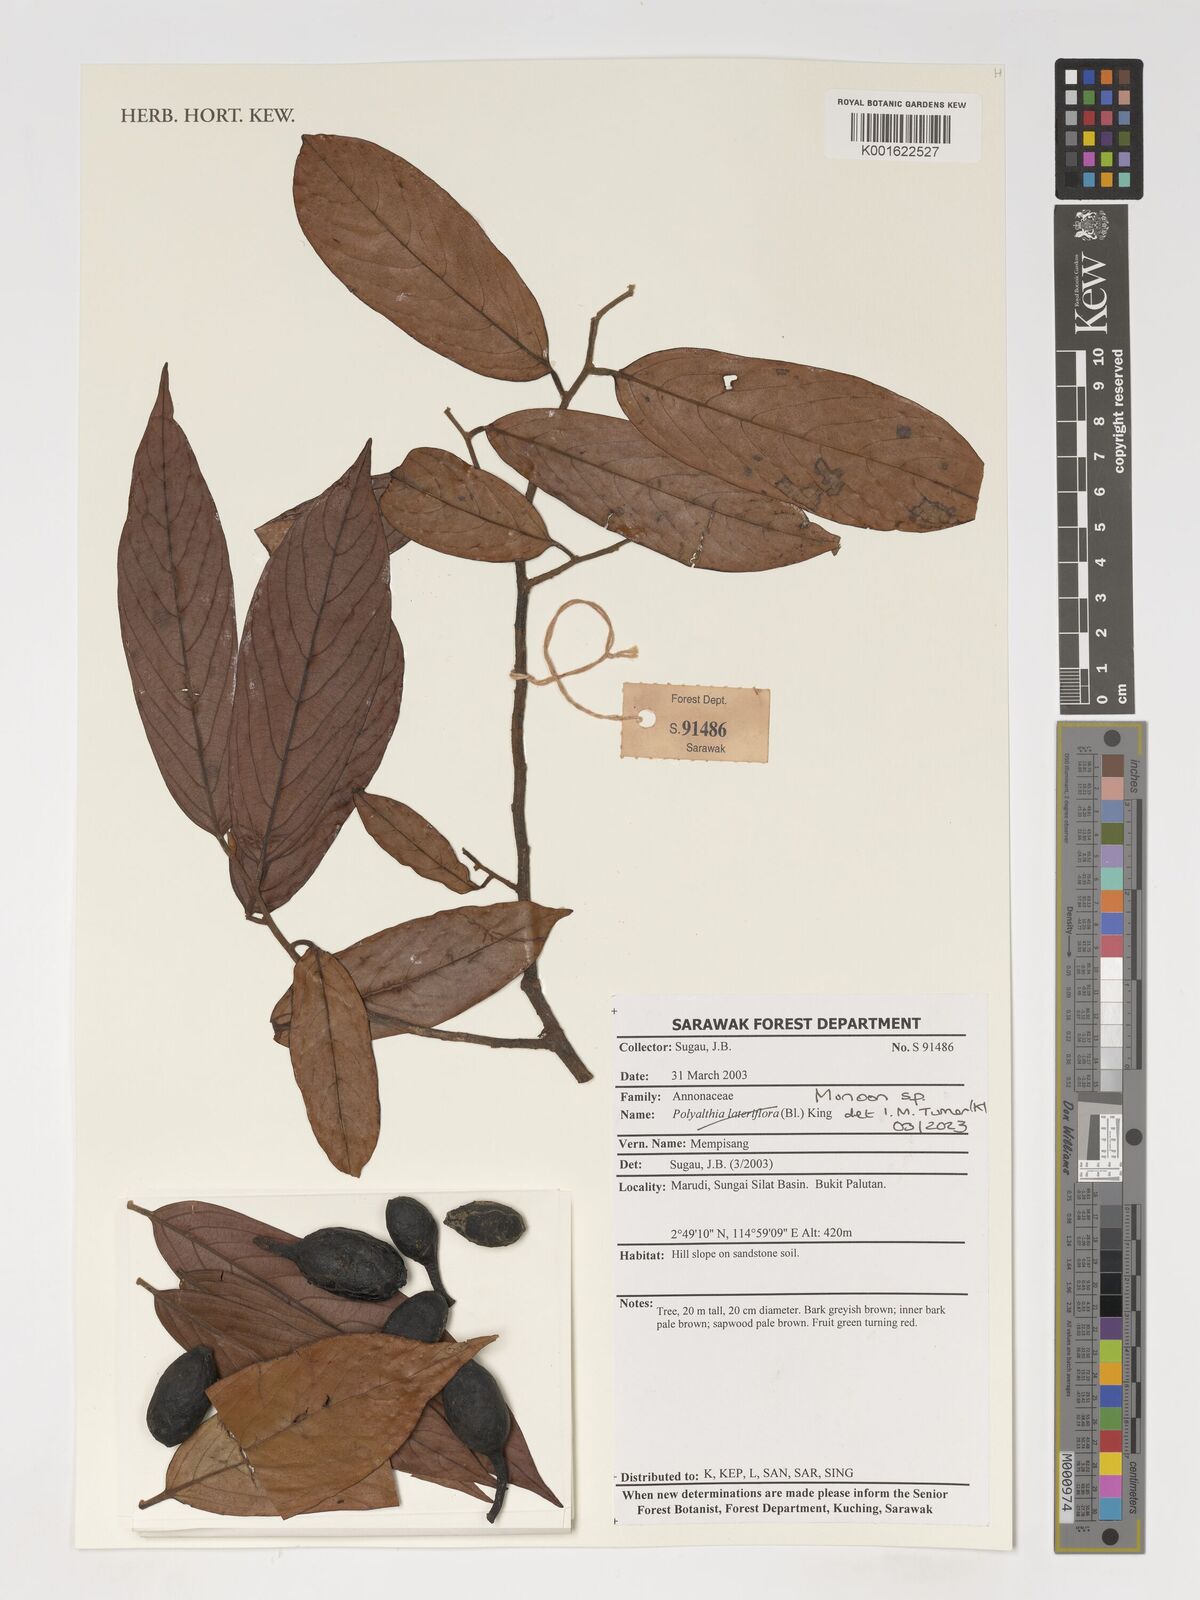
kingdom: Plantae
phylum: Tracheophyta
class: Magnoliopsida
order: Magnoliales
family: Annonaceae
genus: Monoon
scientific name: Monoon
